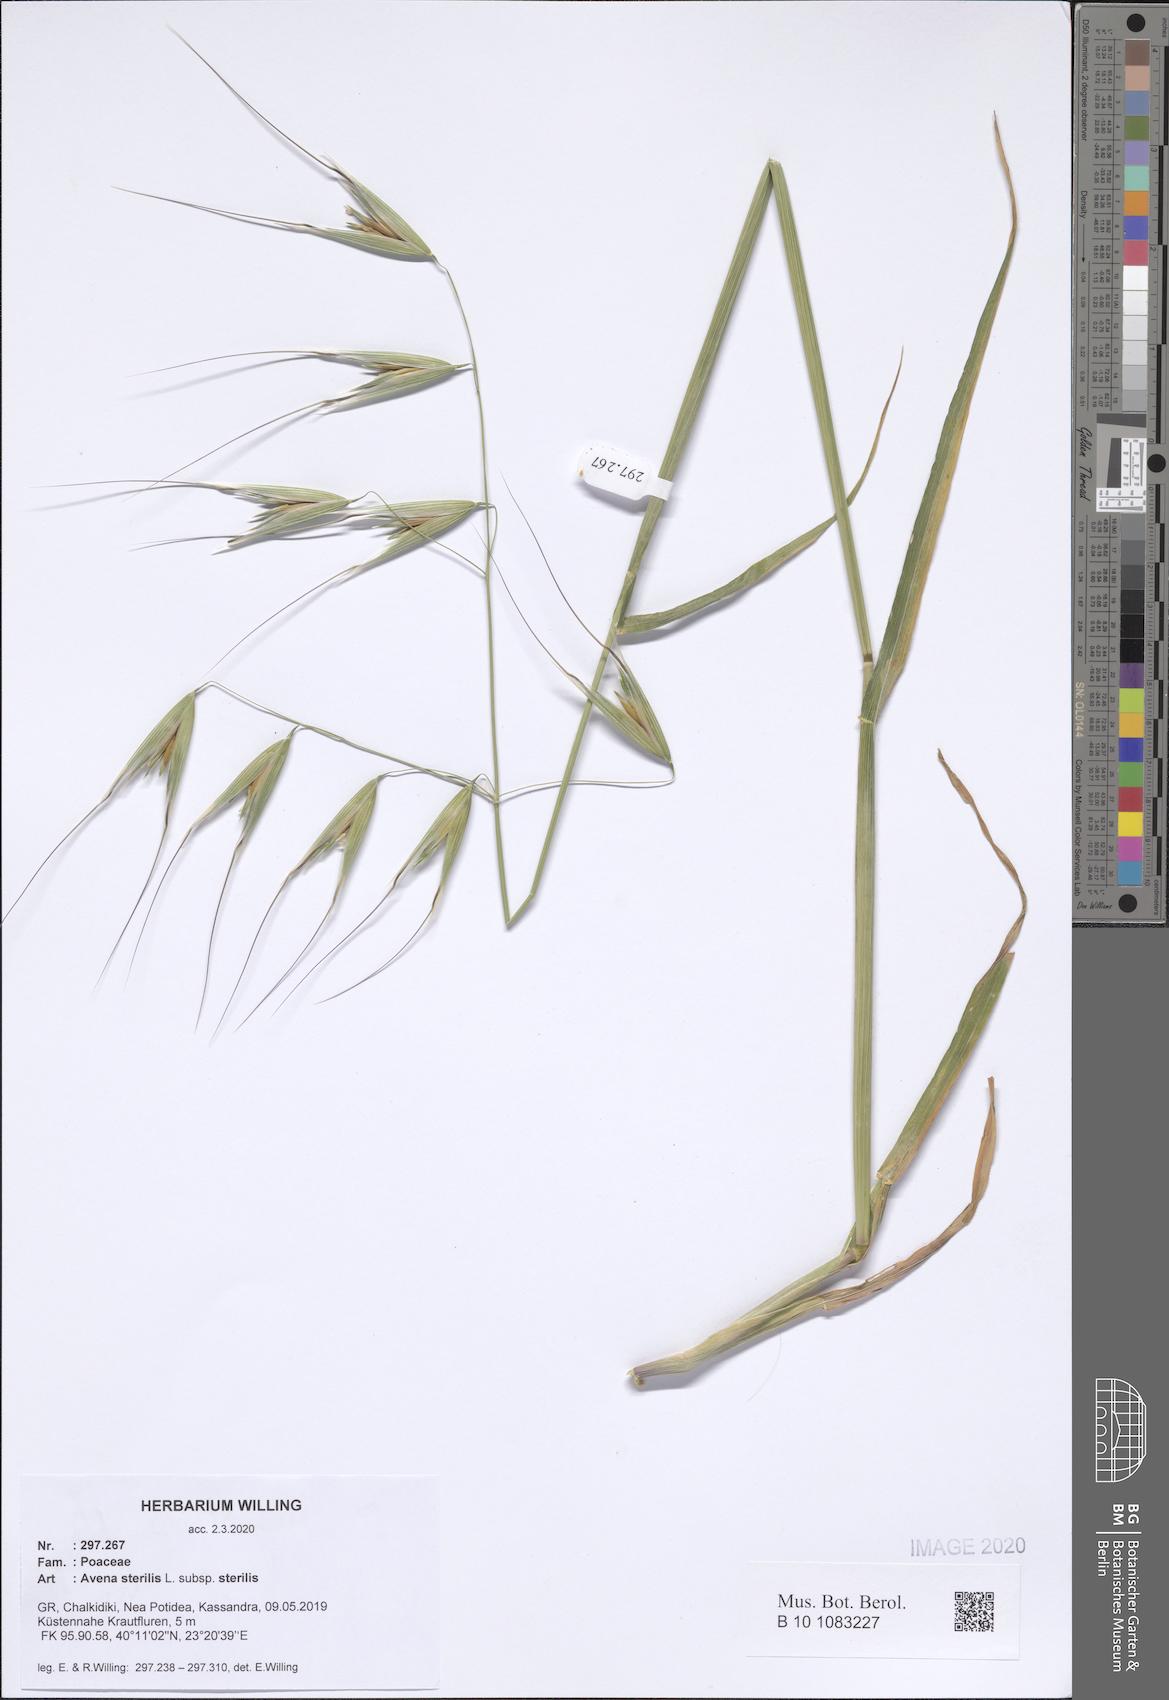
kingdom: Plantae
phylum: Tracheophyta
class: Liliopsida
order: Poales
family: Poaceae
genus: Avena
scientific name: Avena sterilis
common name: Animated oat
